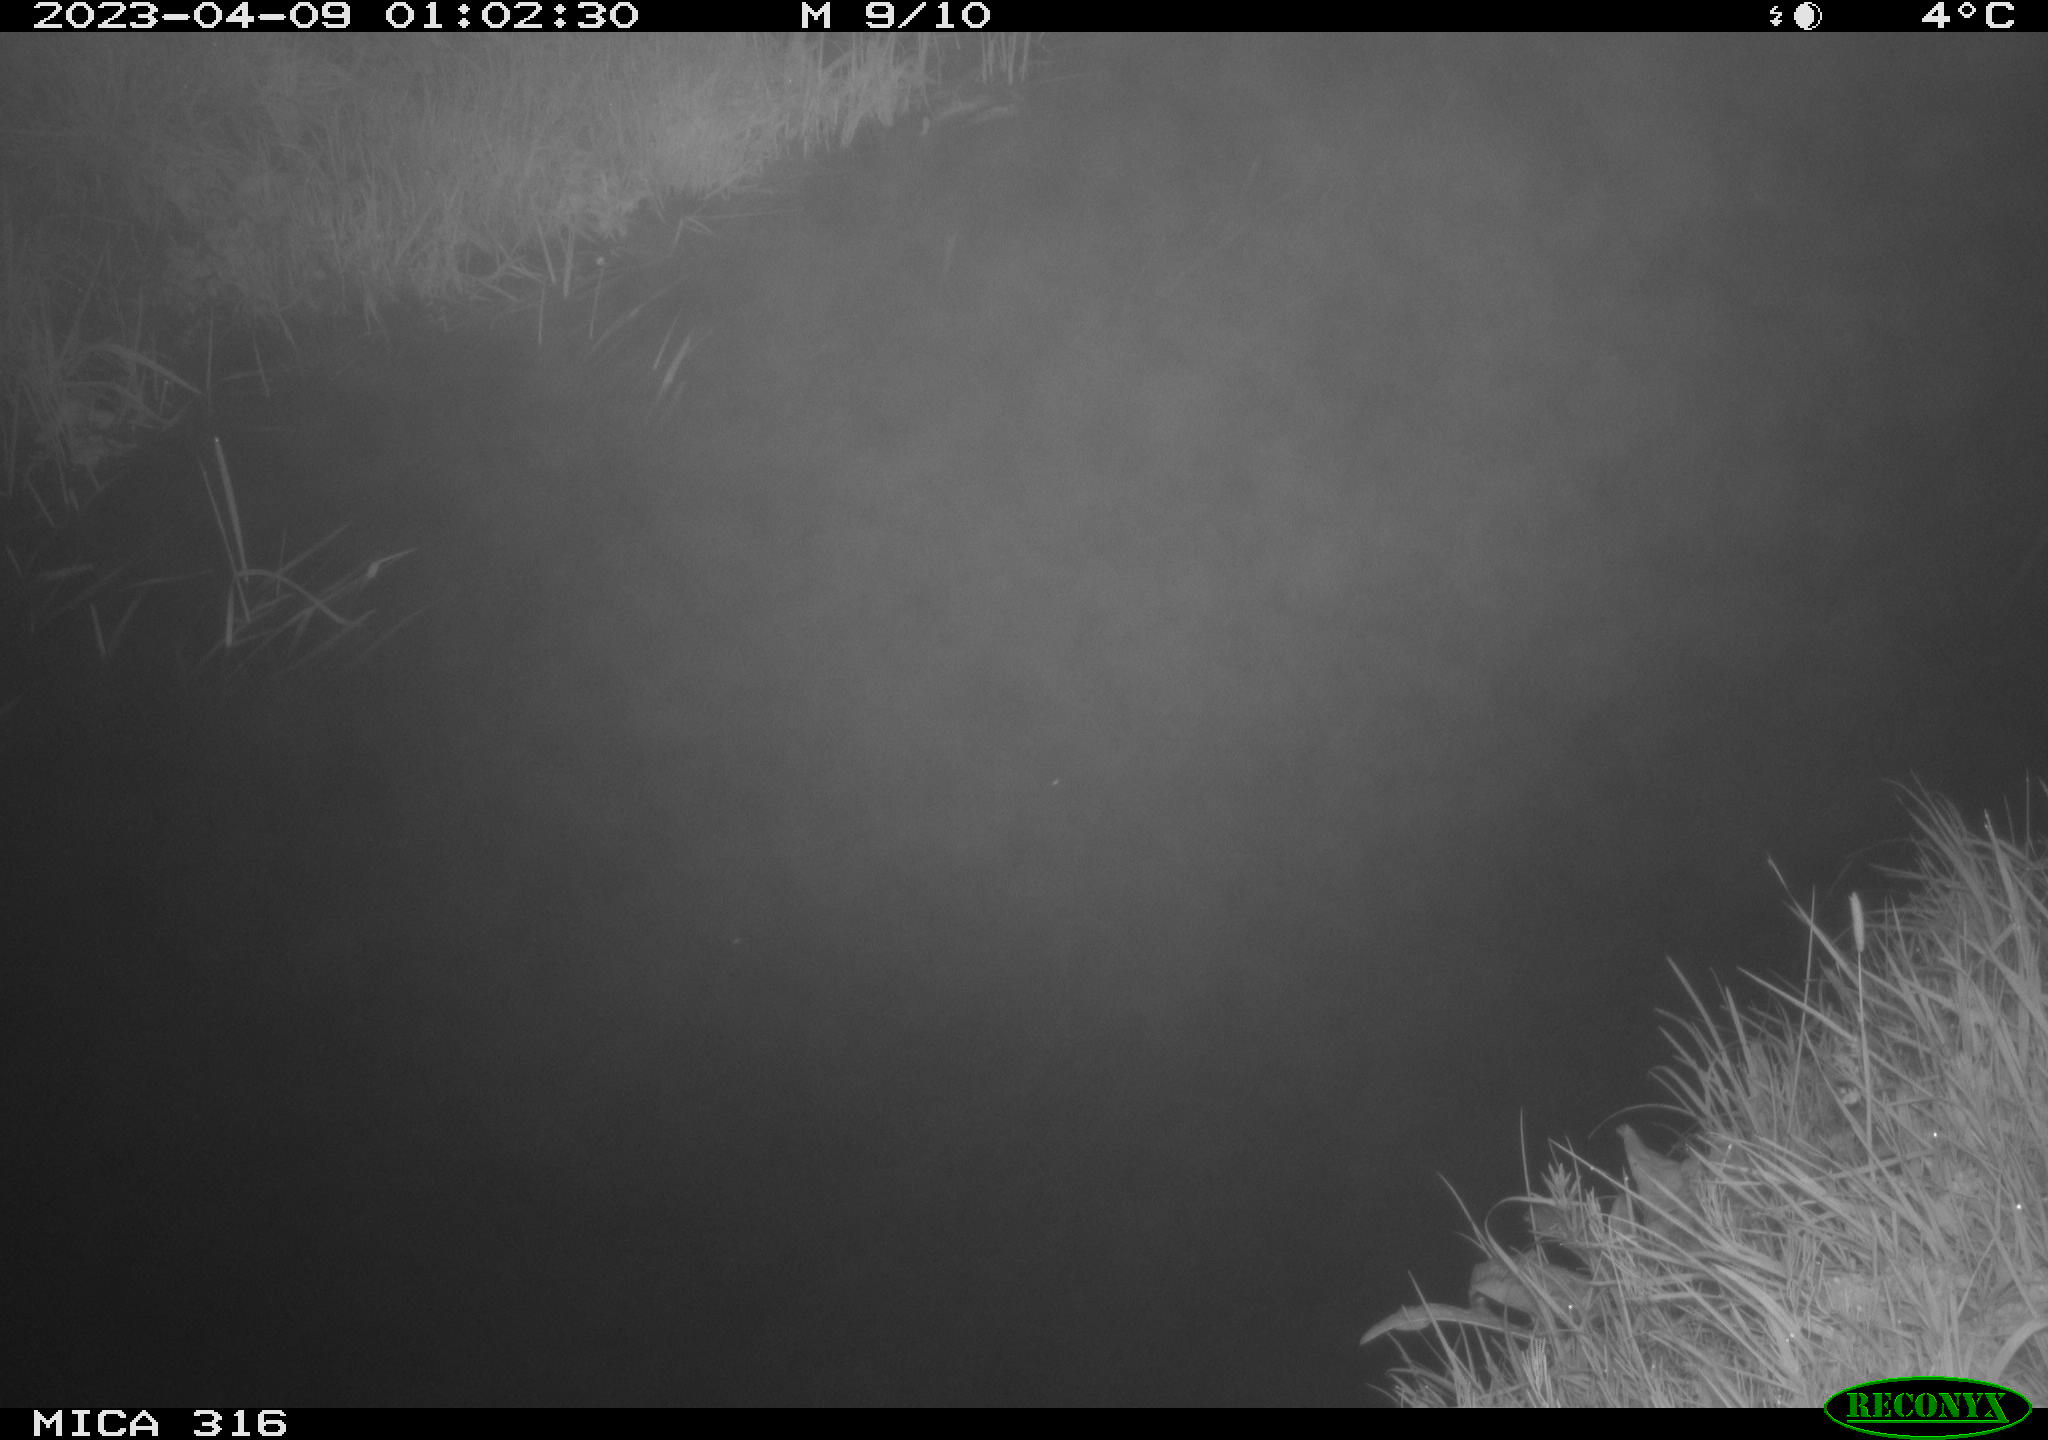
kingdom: Animalia
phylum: Chordata
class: Aves
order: Anseriformes
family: Anatidae
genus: Anas
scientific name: Anas
